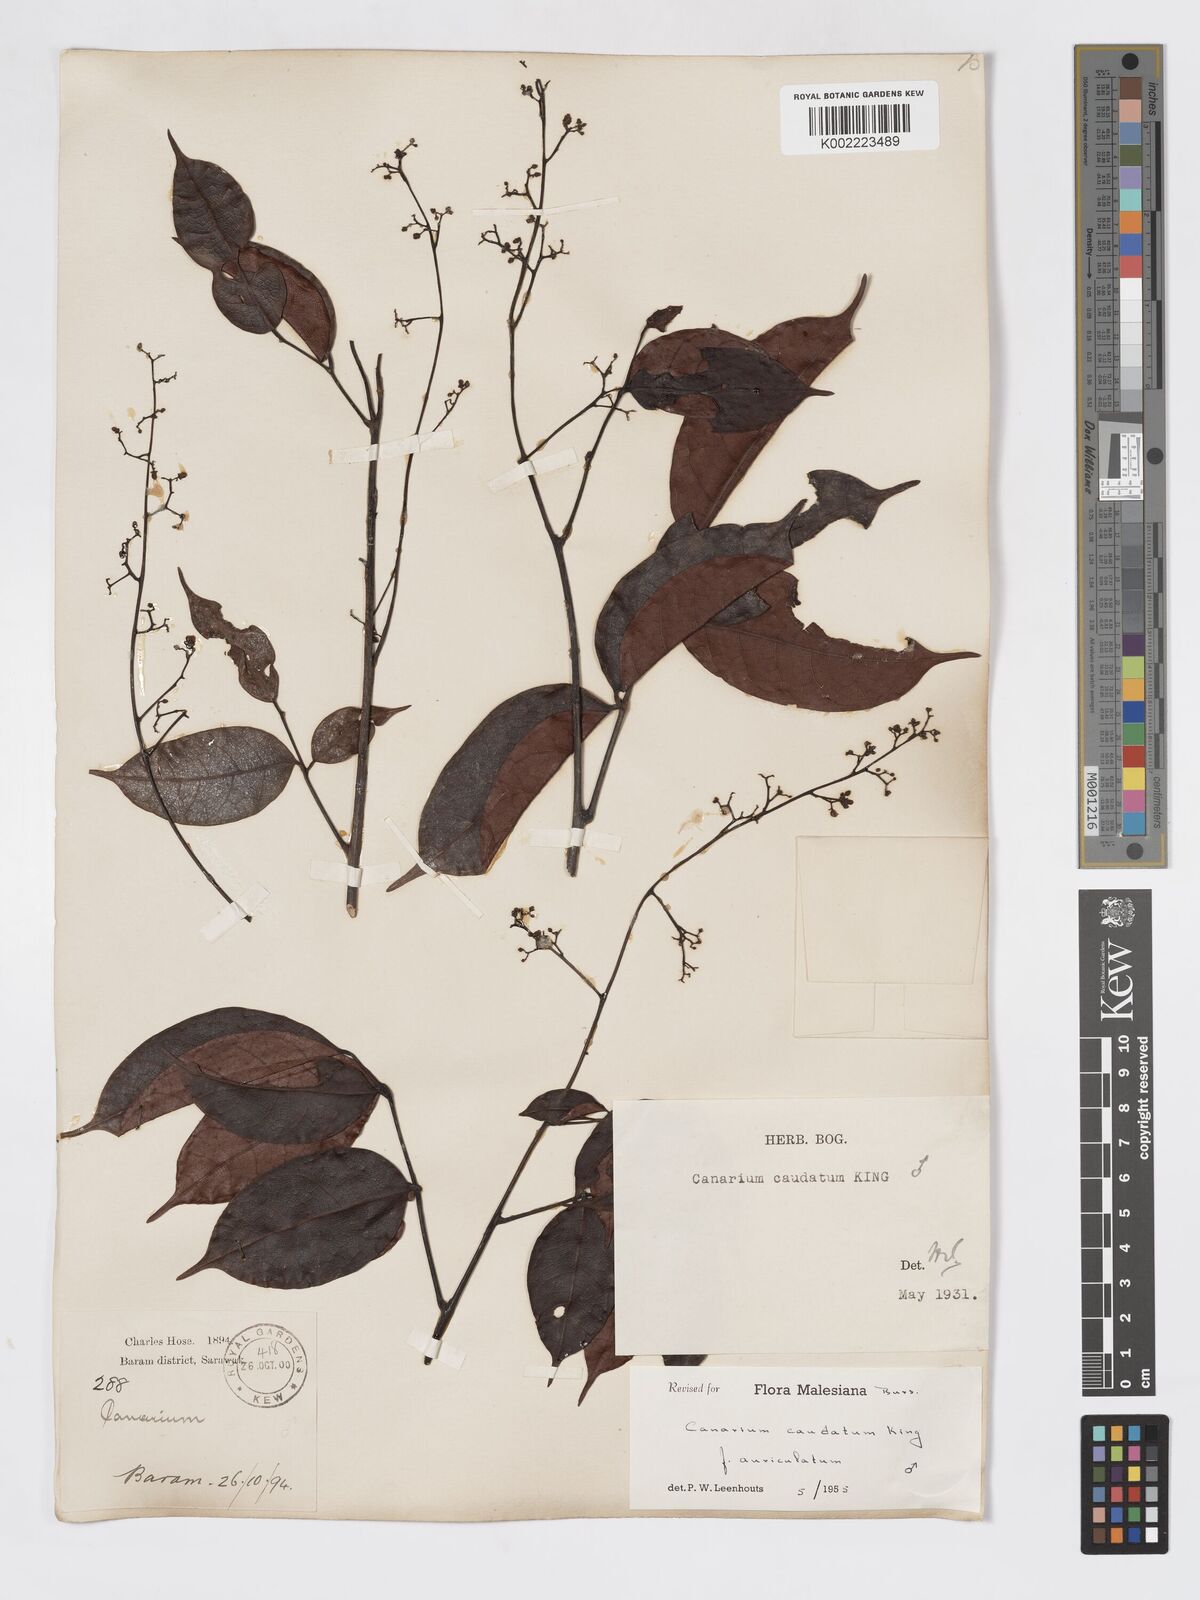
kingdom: Plantae
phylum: Tracheophyta
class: Magnoliopsida
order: Sapindales
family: Burseraceae
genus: Canarium
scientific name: Canarium caudatum
